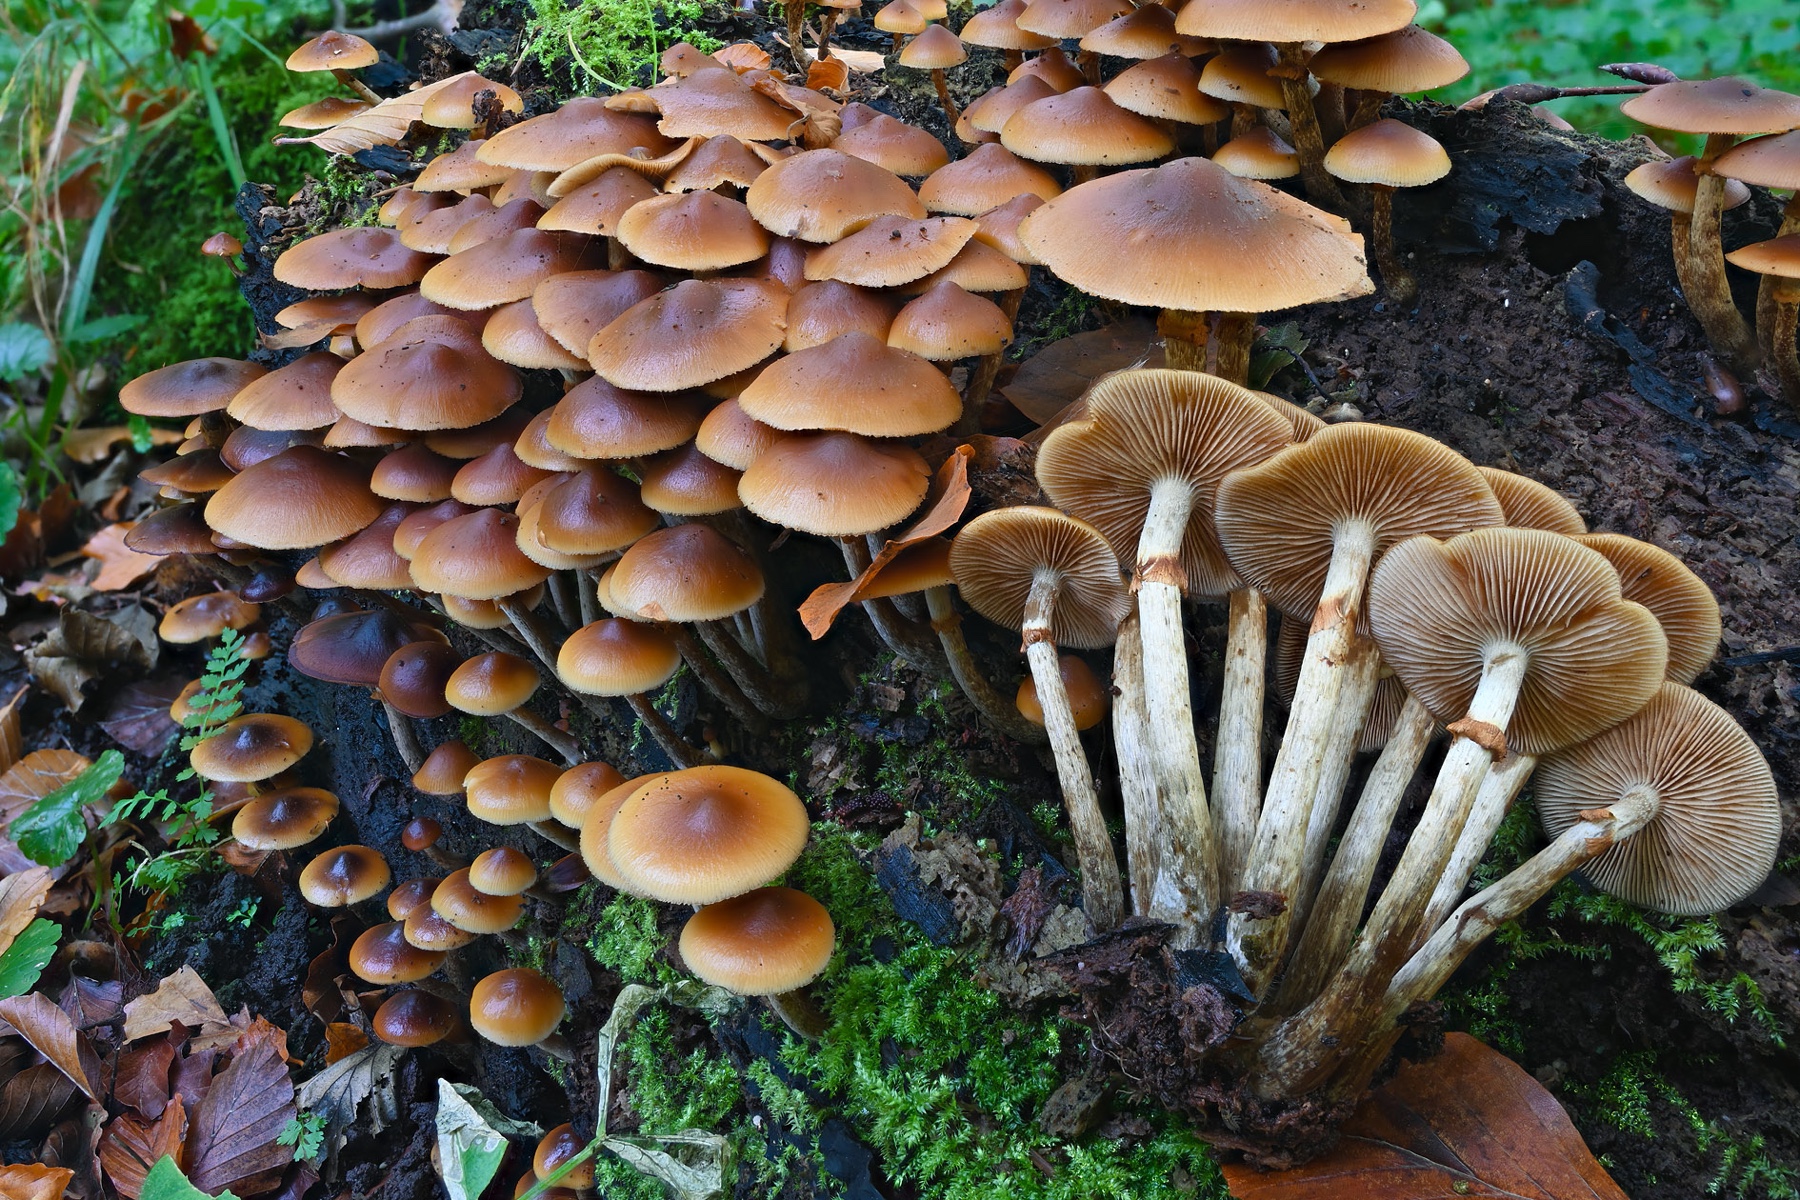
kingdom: Fungi
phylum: Basidiomycota
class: Agaricomycetes
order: Agaricales
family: Hymenogastraceae
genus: Galerina
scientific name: Galerina marginata
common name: randbæltet hjelmhat
